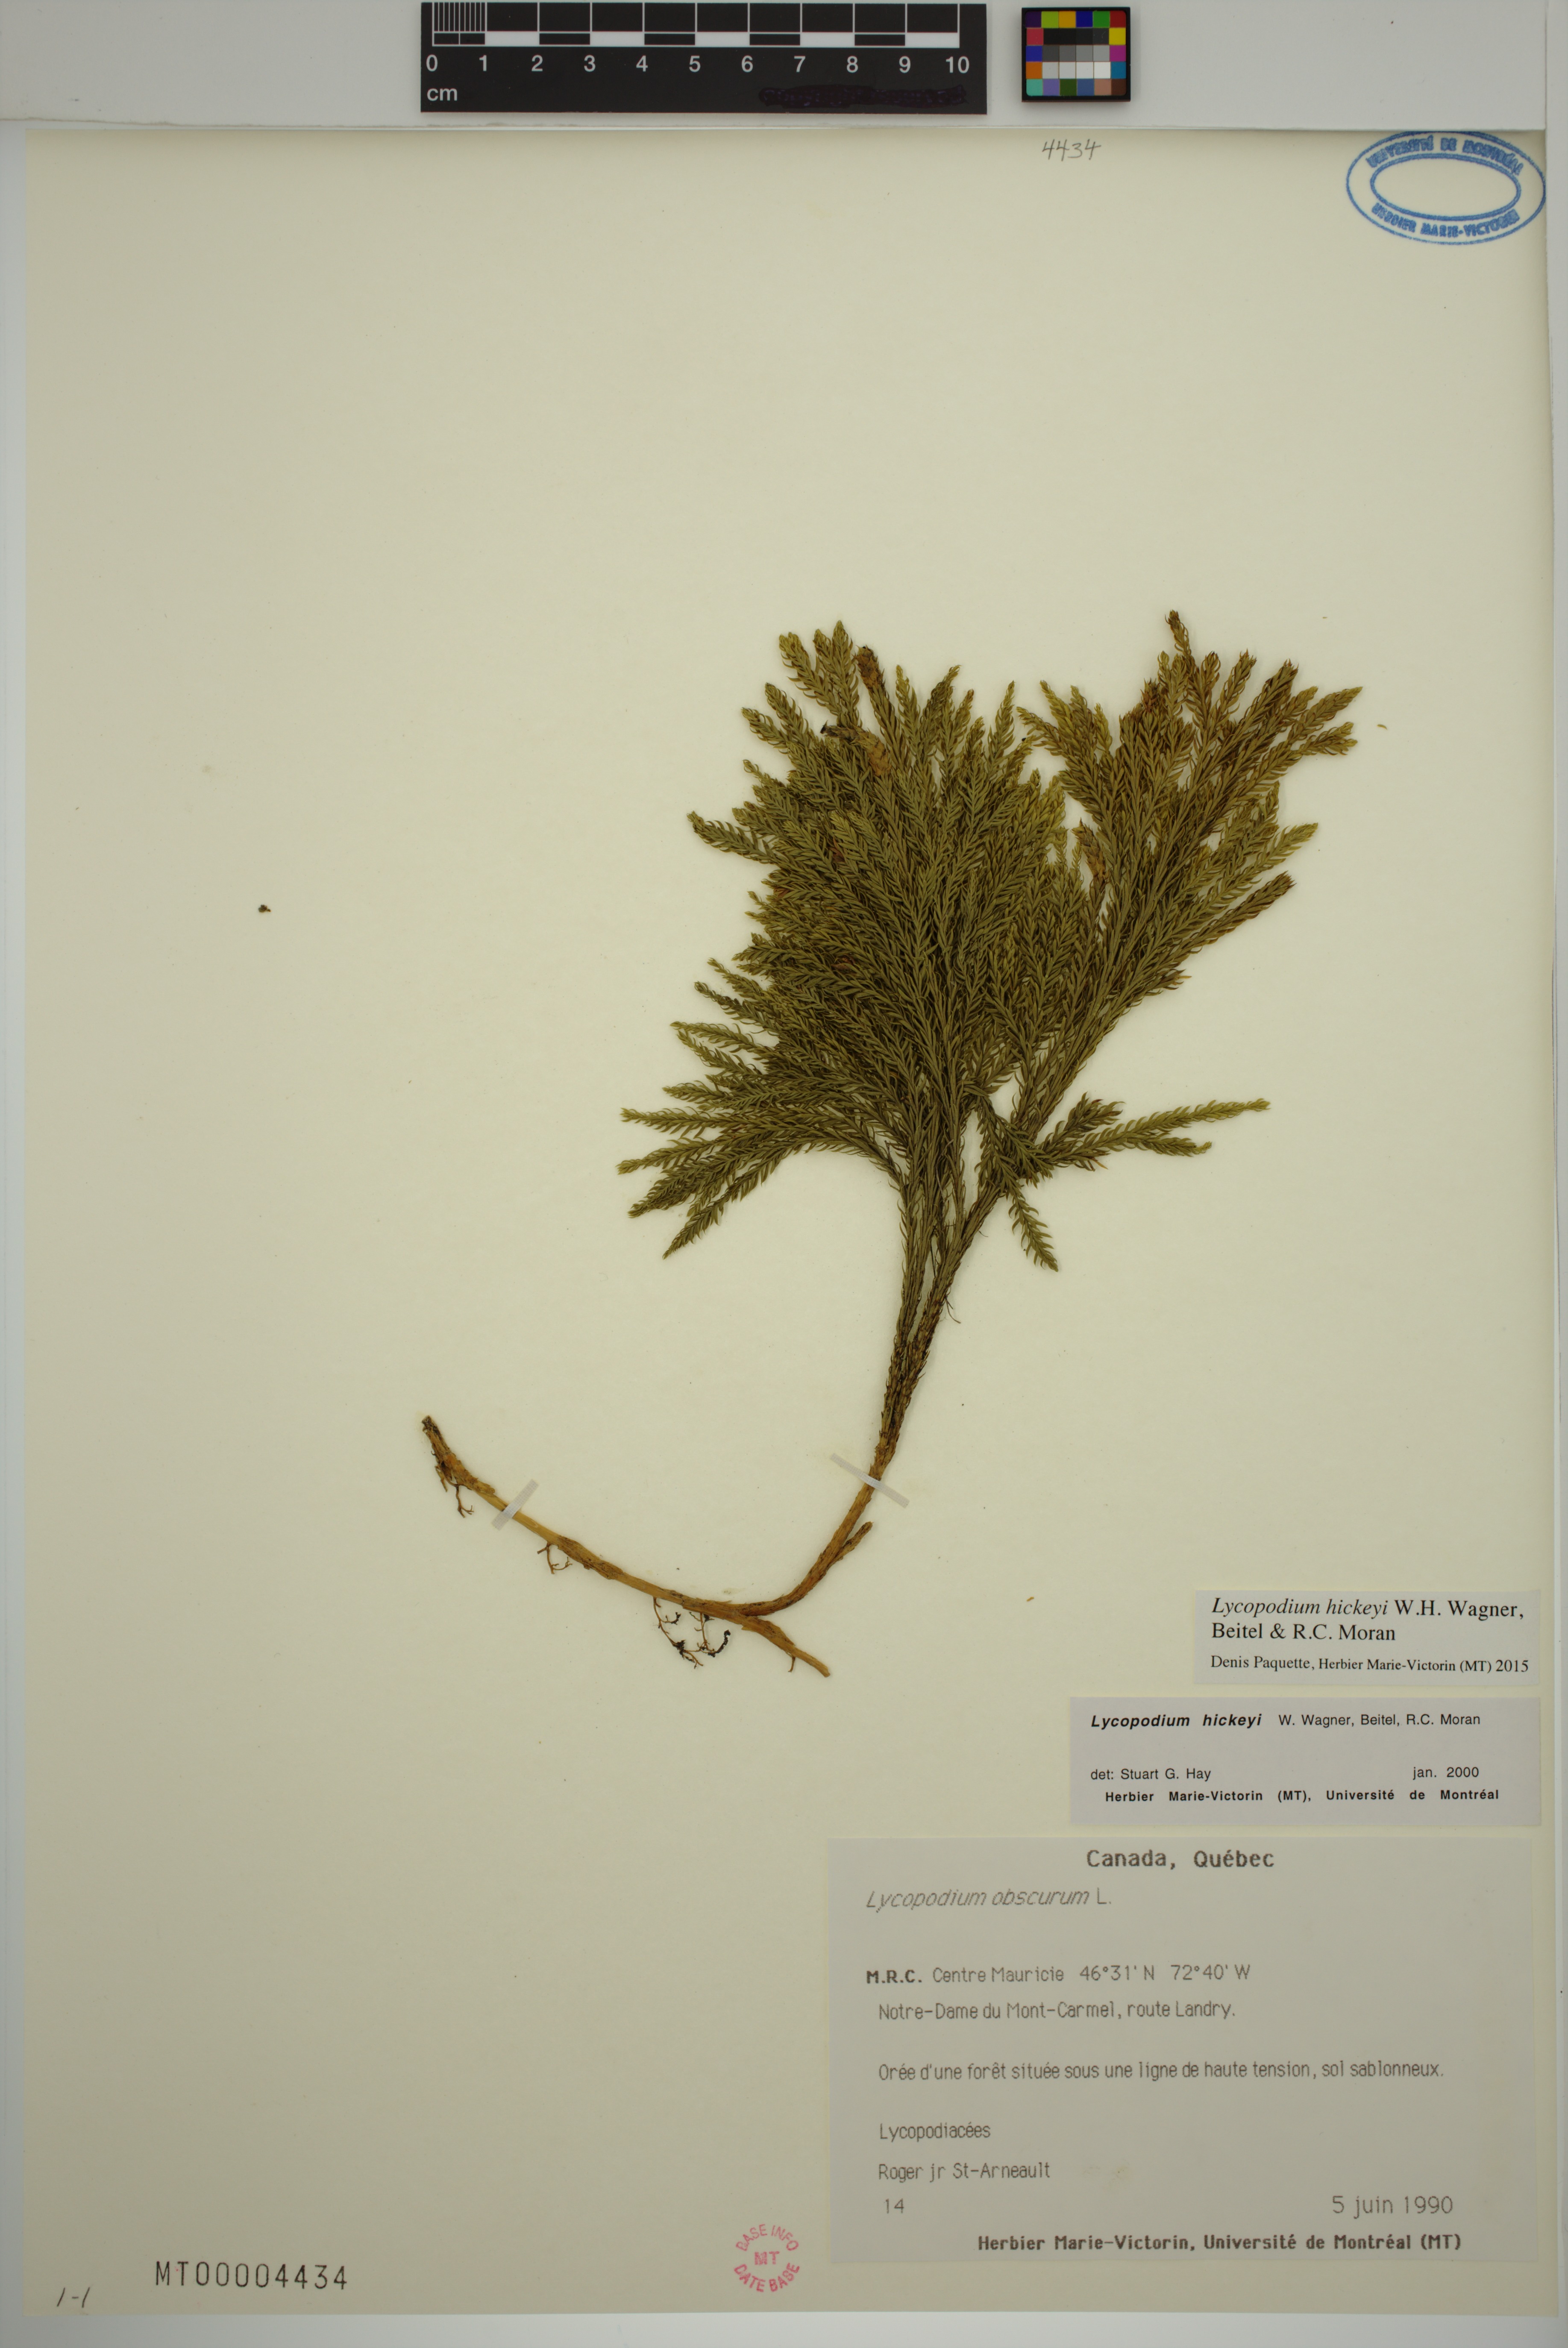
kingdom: Plantae
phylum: Tracheophyta
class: Lycopodiopsida
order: Lycopodiales
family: Lycopodiaceae
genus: Dendrolycopodium
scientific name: Dendrolycopodium dendroideum
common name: Northern tree-clubmoss
